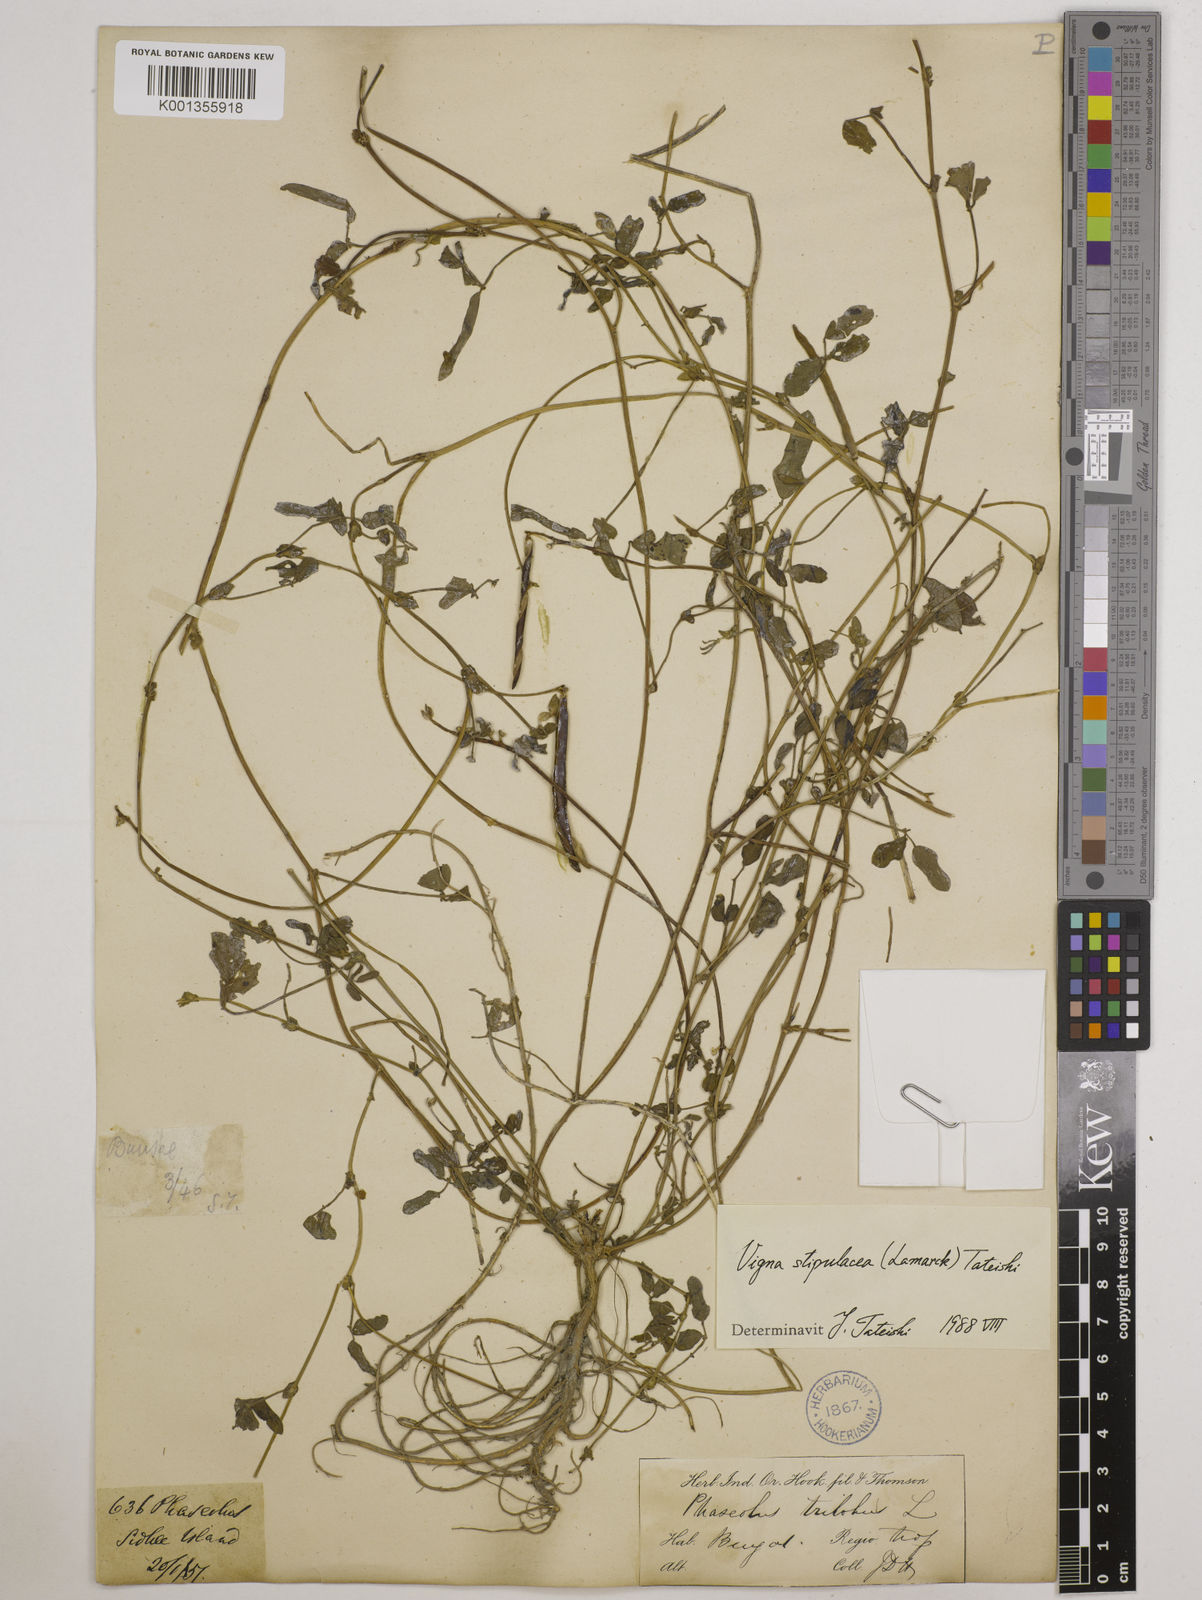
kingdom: Plantae
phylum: Tracheophyta
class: Magnoliopsida
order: Fabales
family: Fabaceae
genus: Pueraria
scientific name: Pueraria montana
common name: Kudzu
